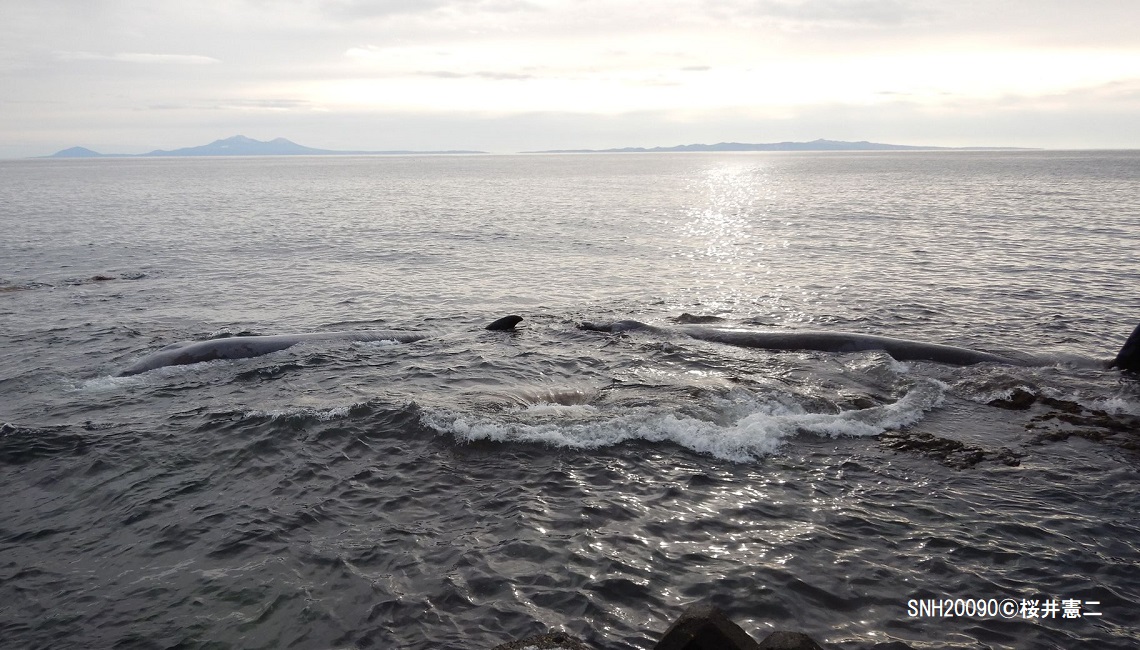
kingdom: Animalia
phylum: Chordata
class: Mammalia
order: Cetacea
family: Hyperoodontidae
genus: Berardius
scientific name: Berardius bairdii
